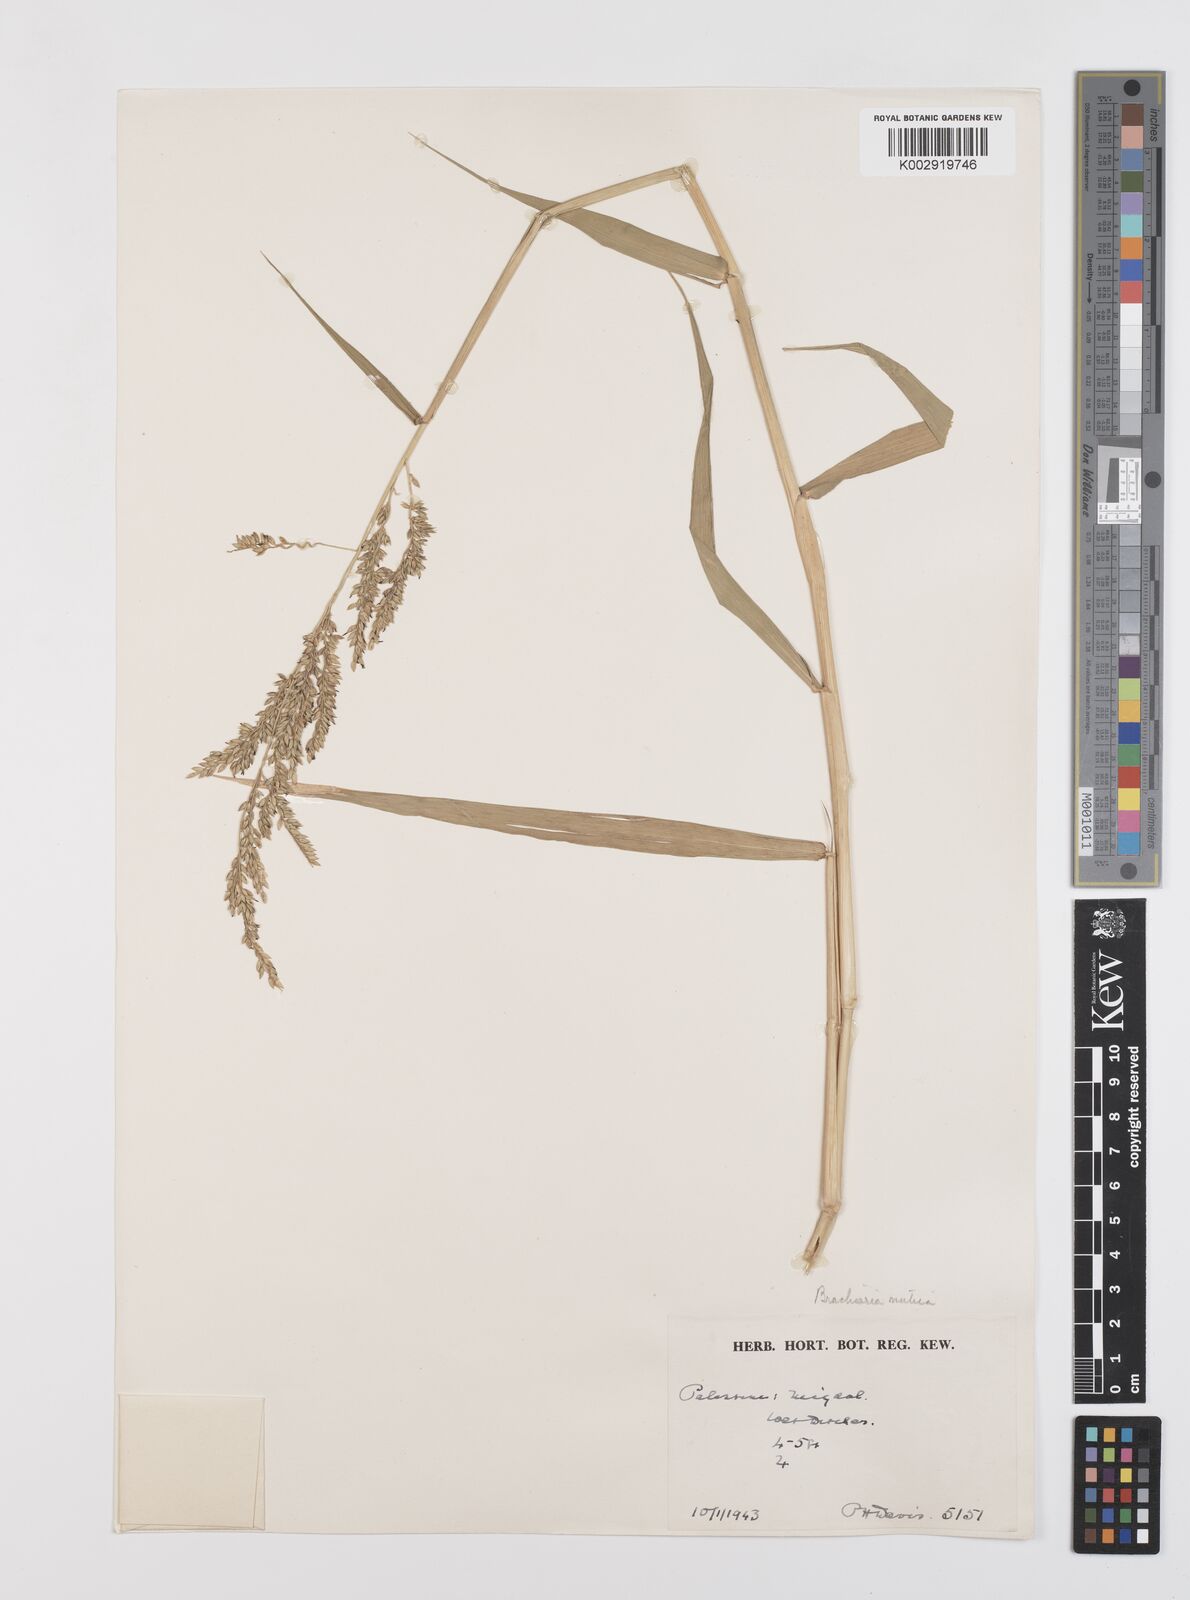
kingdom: Plantae
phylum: Tracheophyta
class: Liliopsida
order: Poales
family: Poaceae
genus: Urochloa
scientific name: Urochloa mutica
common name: Para grass
